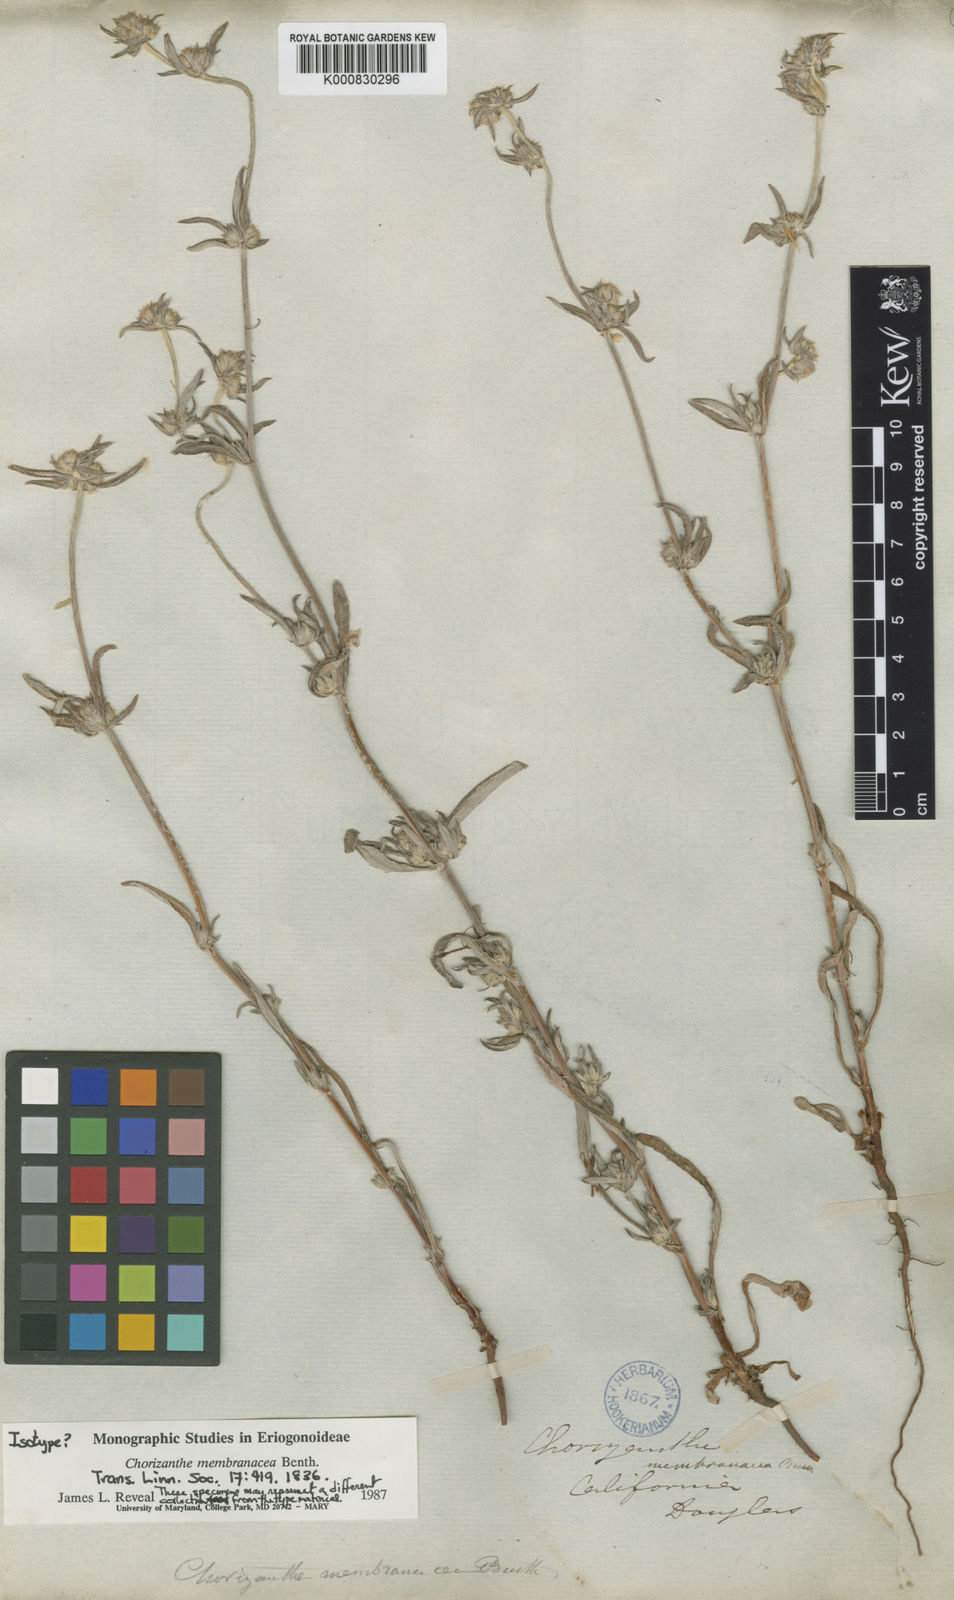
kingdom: Plantae
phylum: Tracheophyta
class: Magnoliopsida
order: Caryophyllales
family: Polygonaceae
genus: Chorizanthe
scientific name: Chorizanthe membranacea
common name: Pink spineflower
